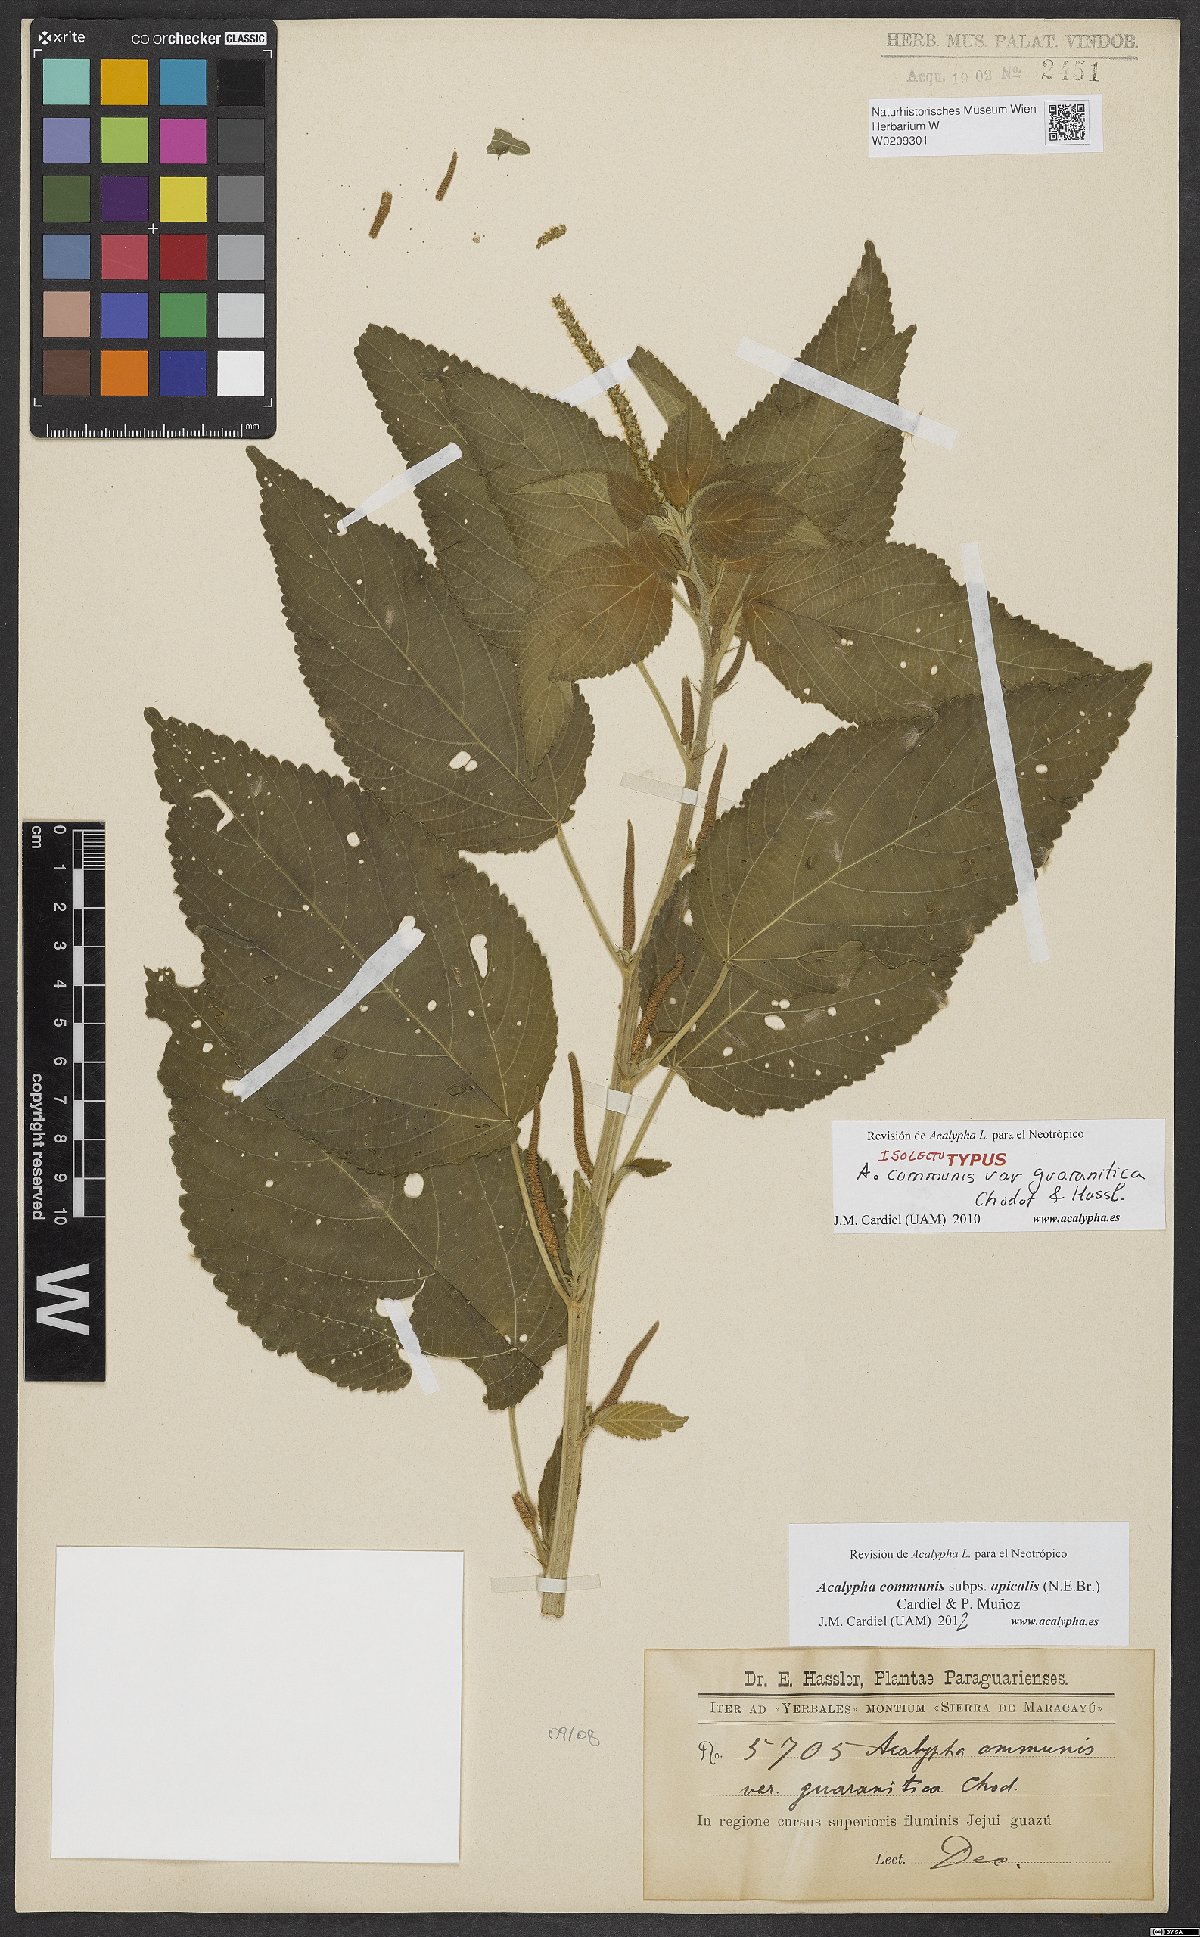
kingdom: Plantae
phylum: Tracheophyta
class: Magnoliopsida
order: Malpighiales
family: Euphorbiaceae
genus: Acalypha
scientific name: Acalypha communis
